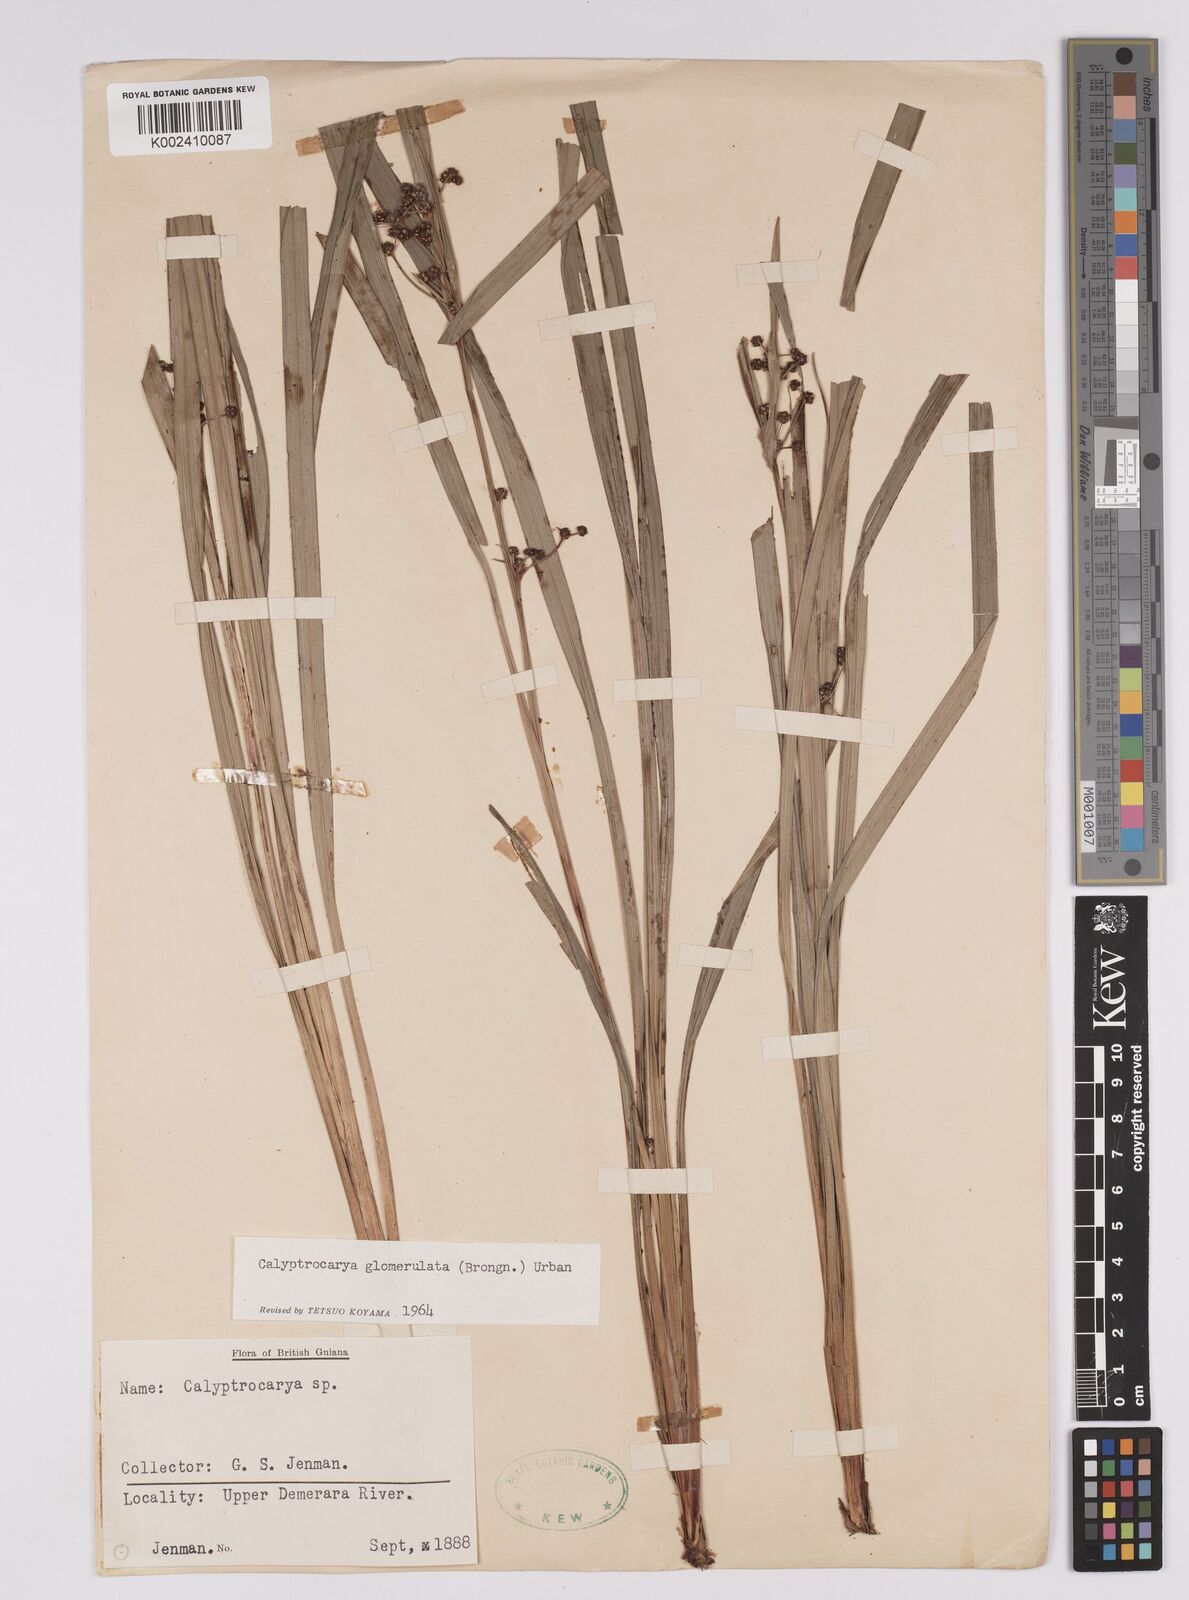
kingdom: Plantae
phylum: Tracheophyta
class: Liliopsida
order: Poales
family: Cyperaceae
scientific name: Cyperaceae
